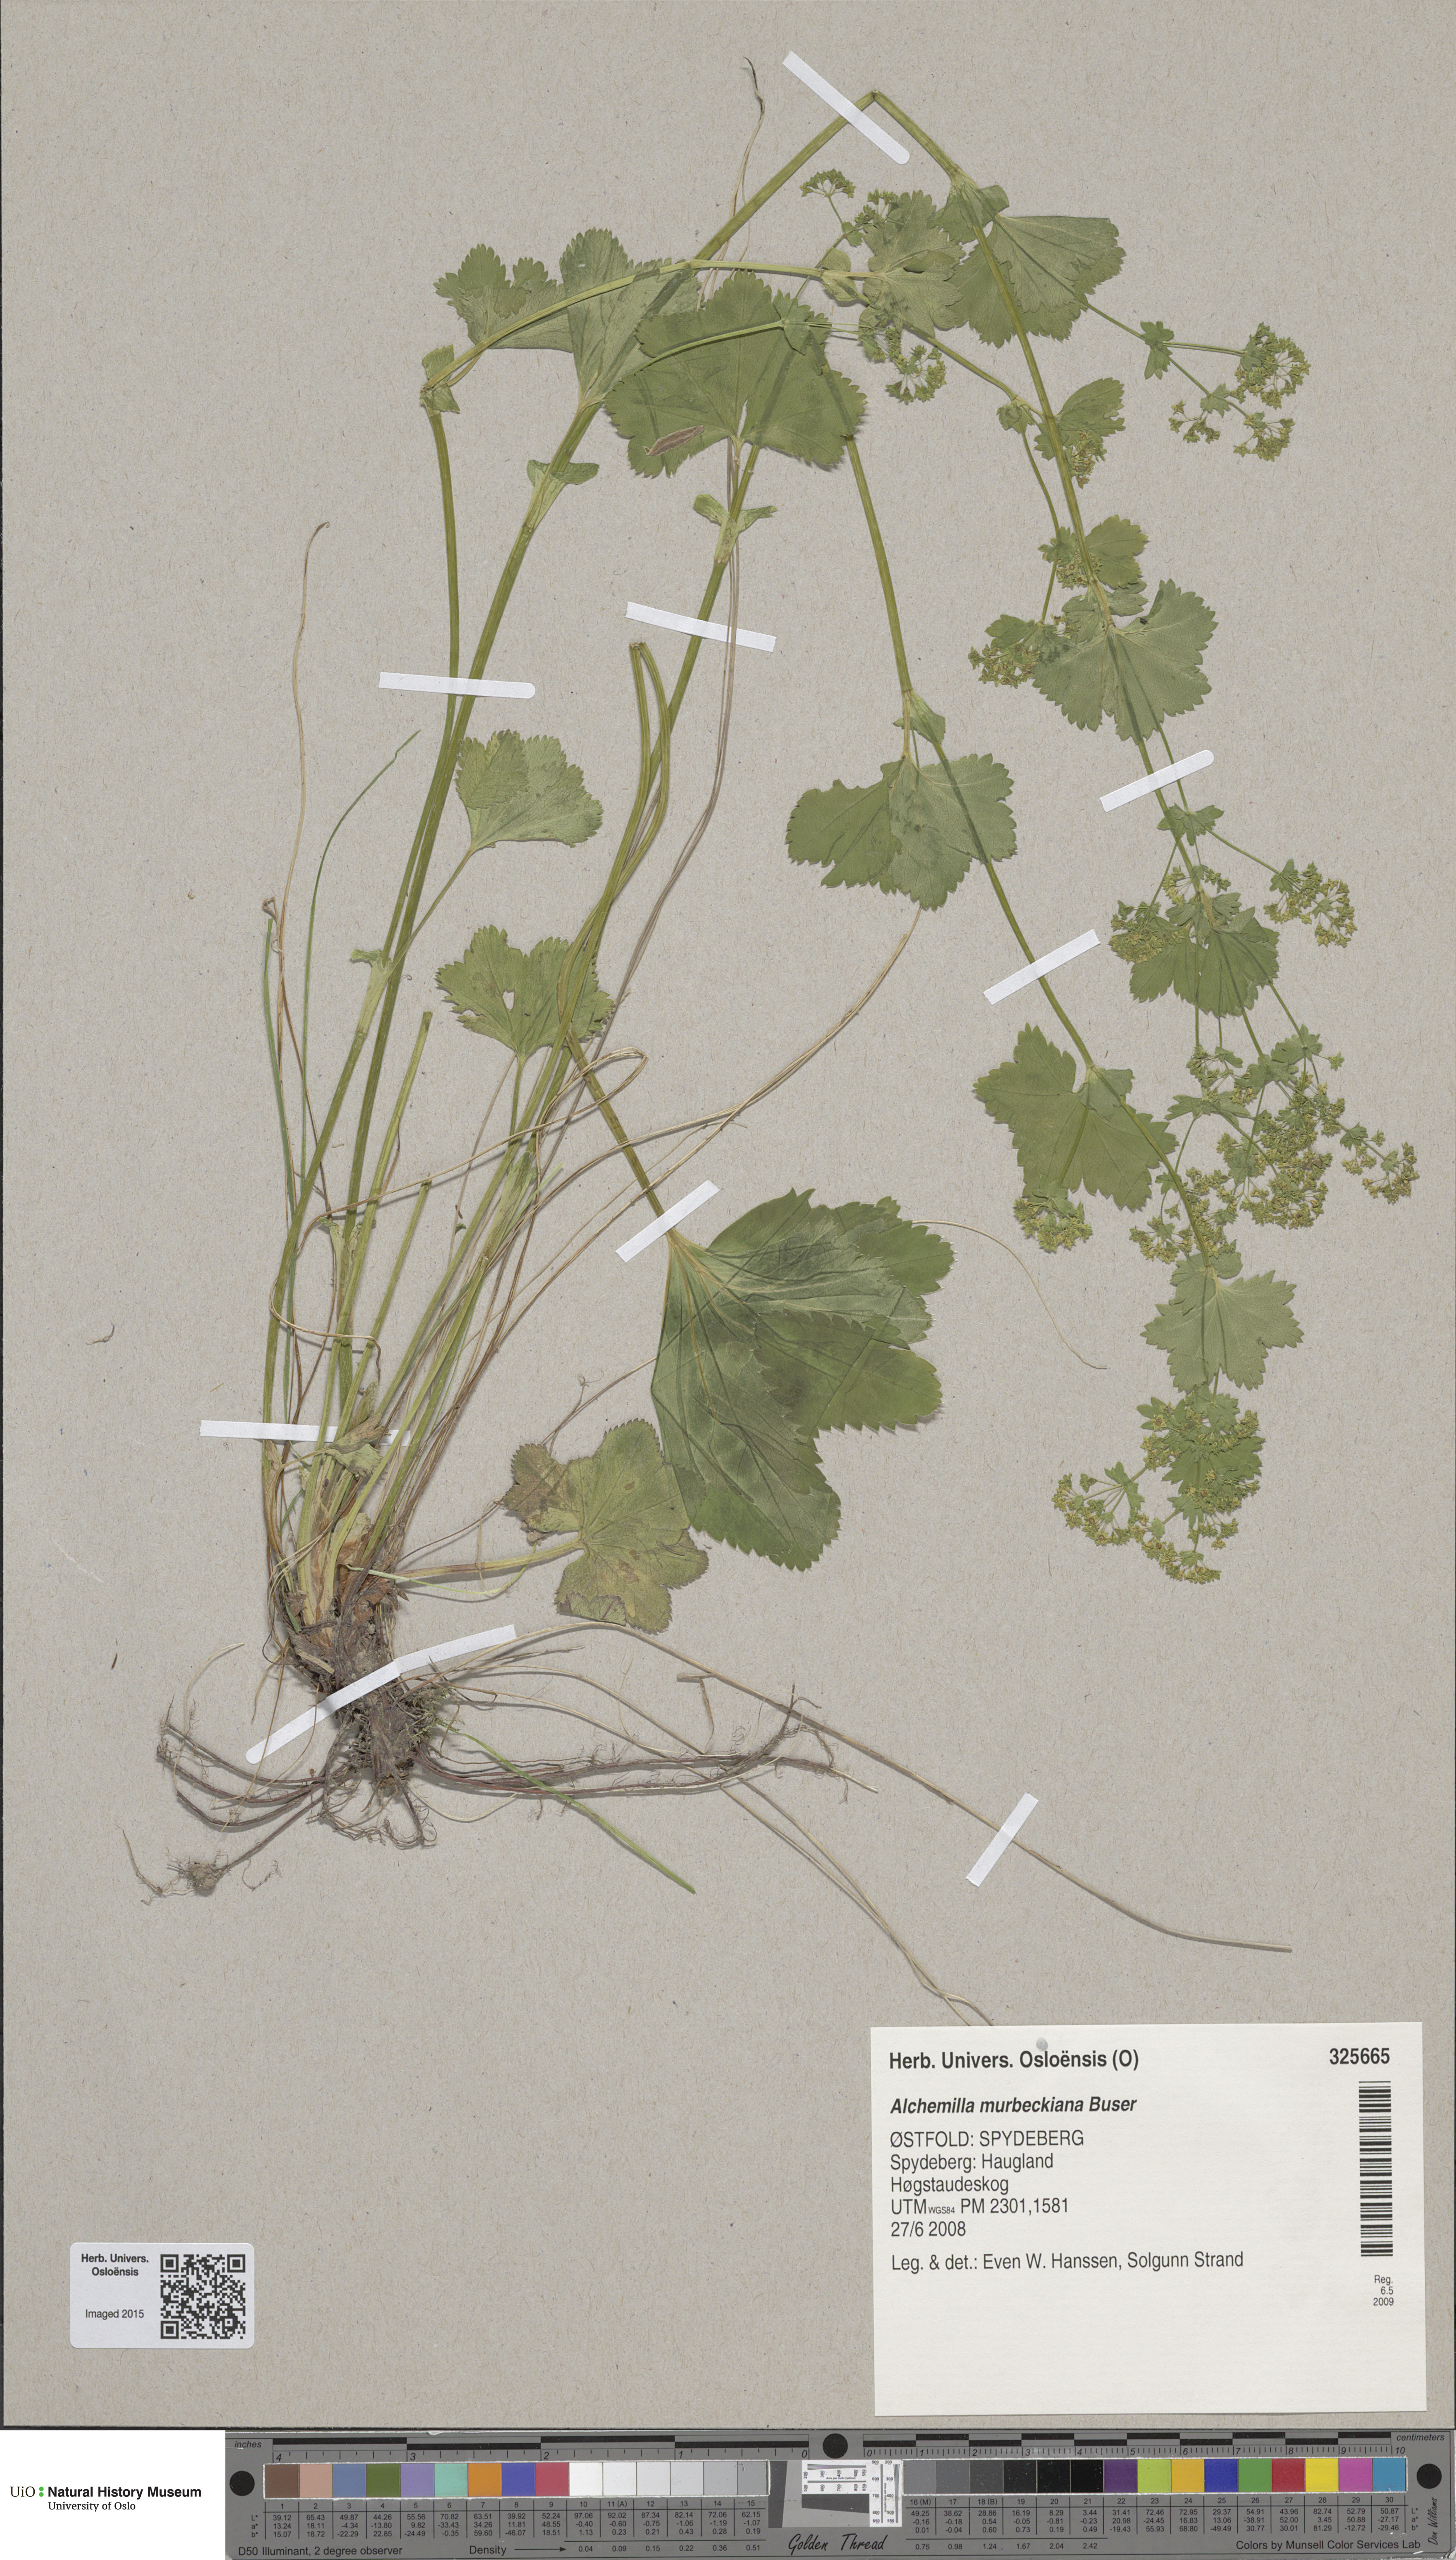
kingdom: Plantae
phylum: Tracheophyta
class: Magnoliopsida
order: Rosales
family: Rosaceae
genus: Alchemilla
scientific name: Alchemilla murbeckiana
